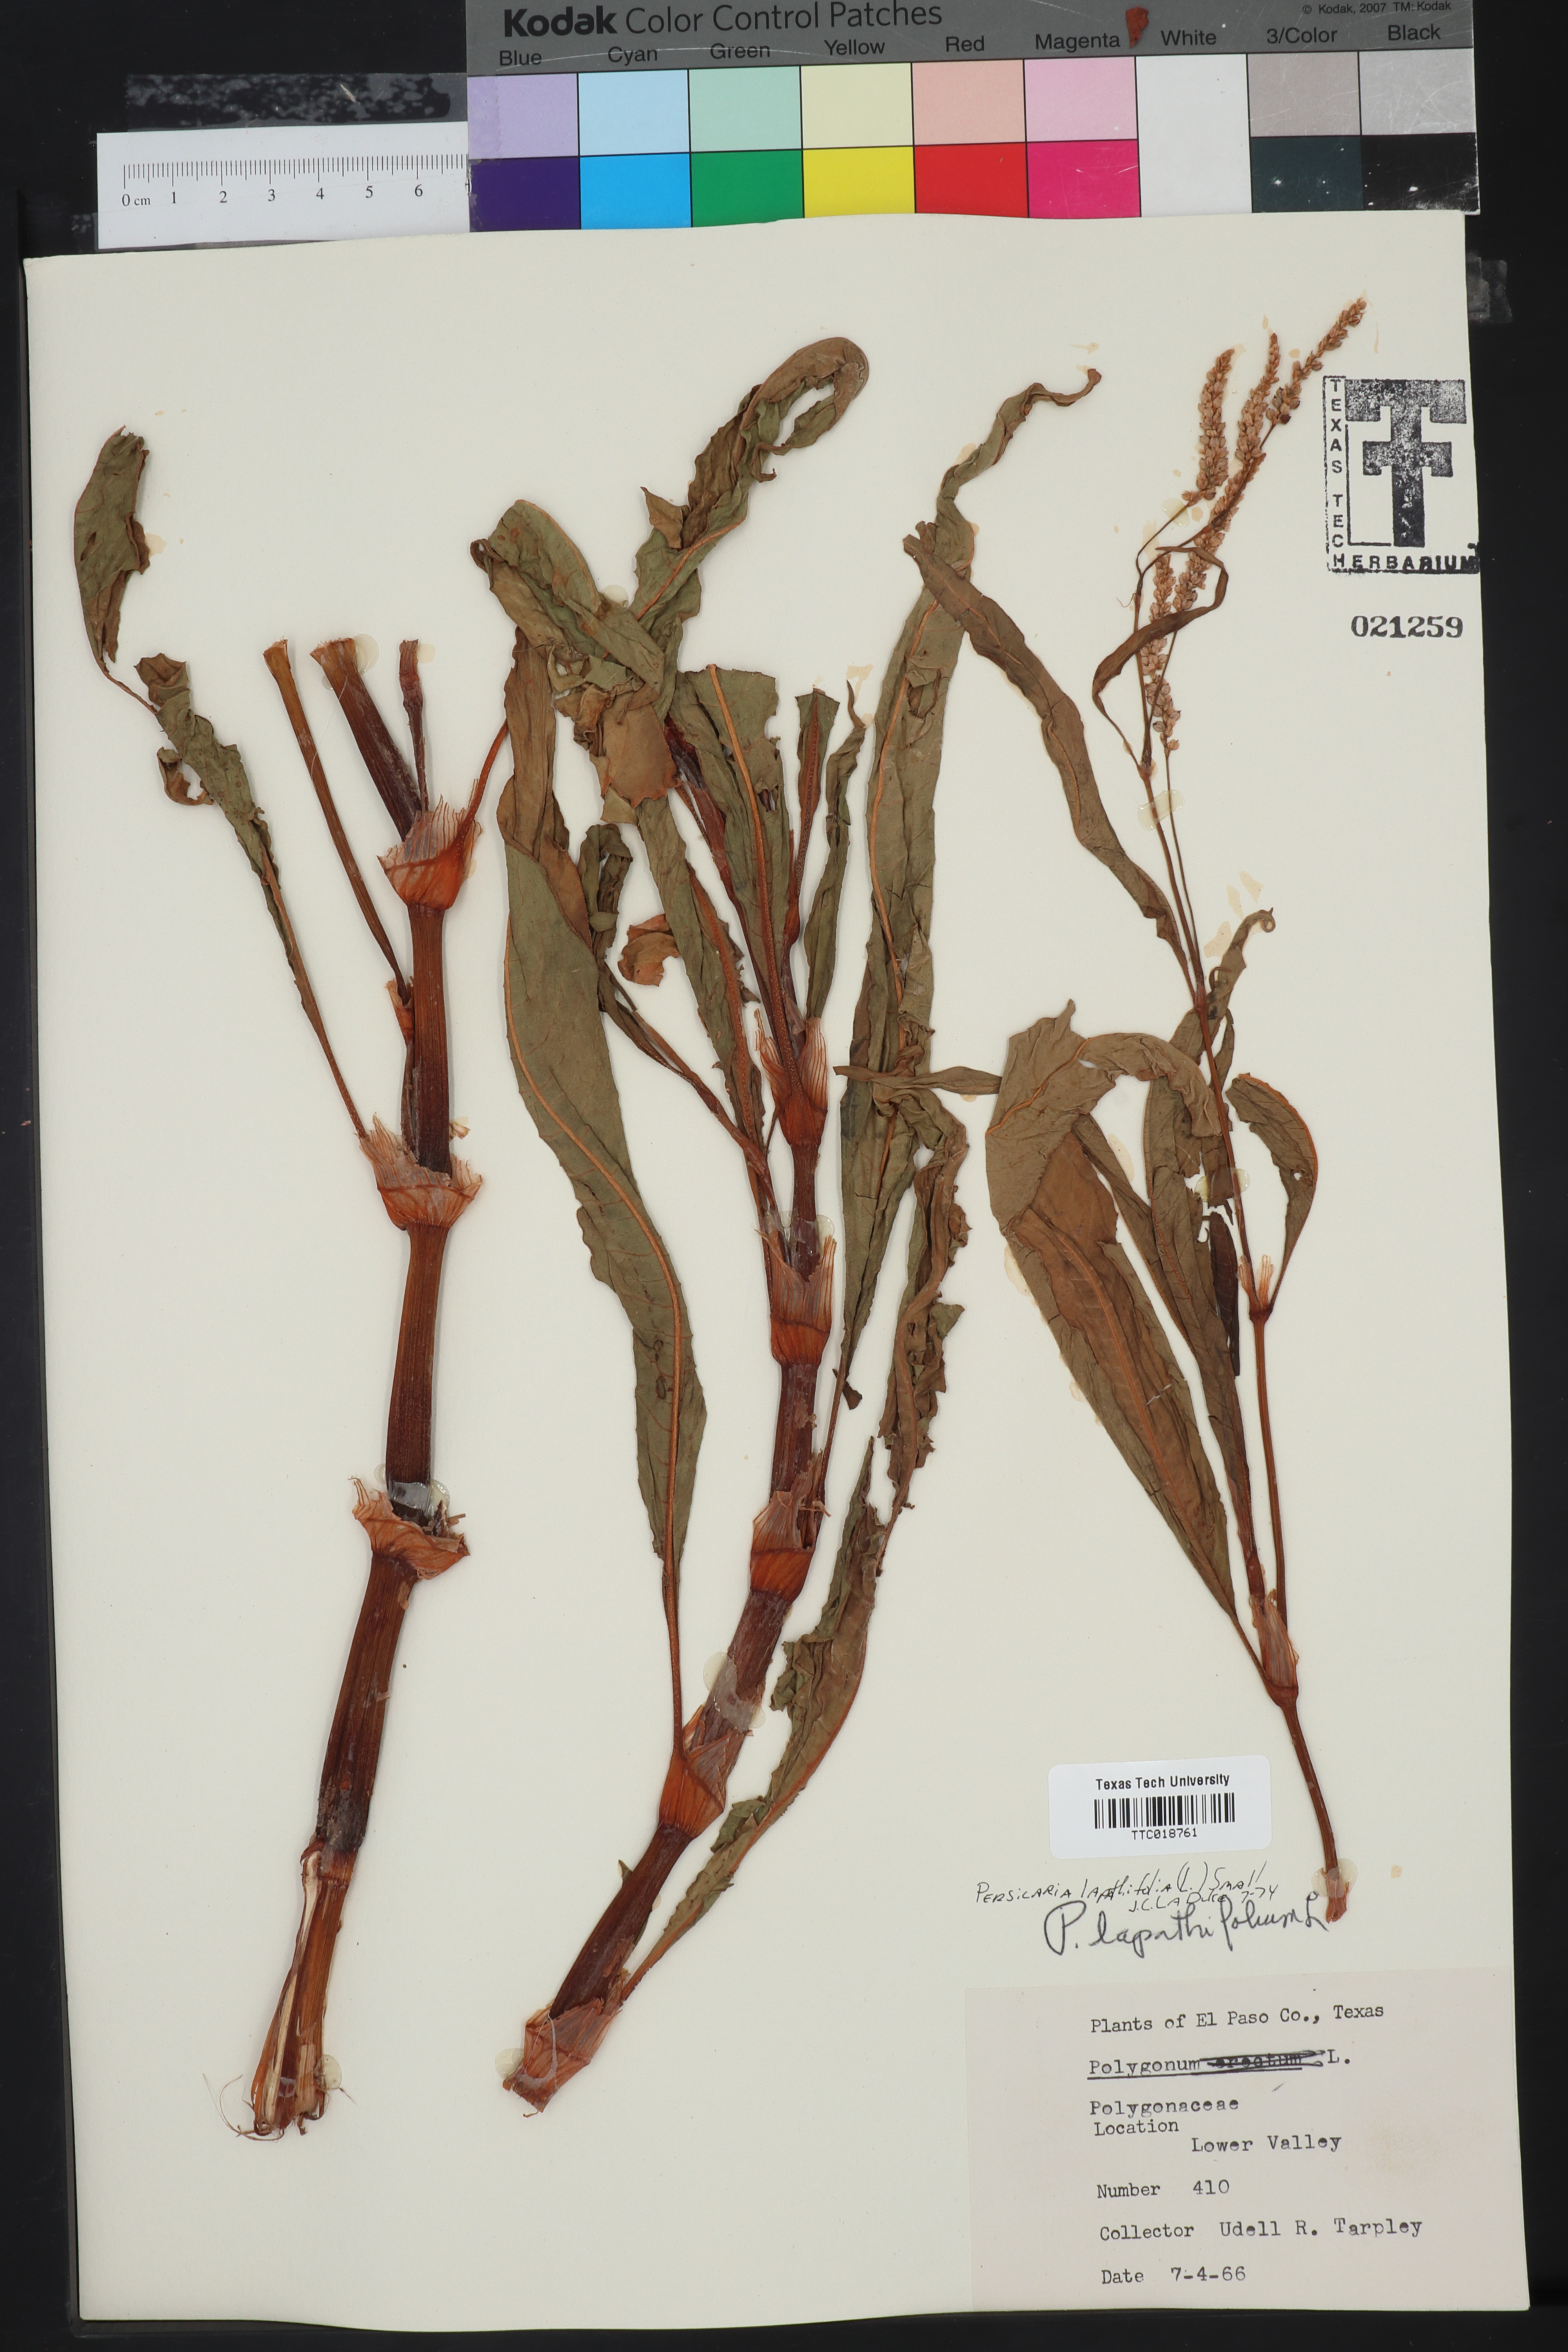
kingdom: Plantae
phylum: Tracheophyta
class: Magnoliopsida
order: Caryophyllales
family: Polygonaceae
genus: Persicaria
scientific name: Persicaria lapathifolia
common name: Curlytop knotweed
